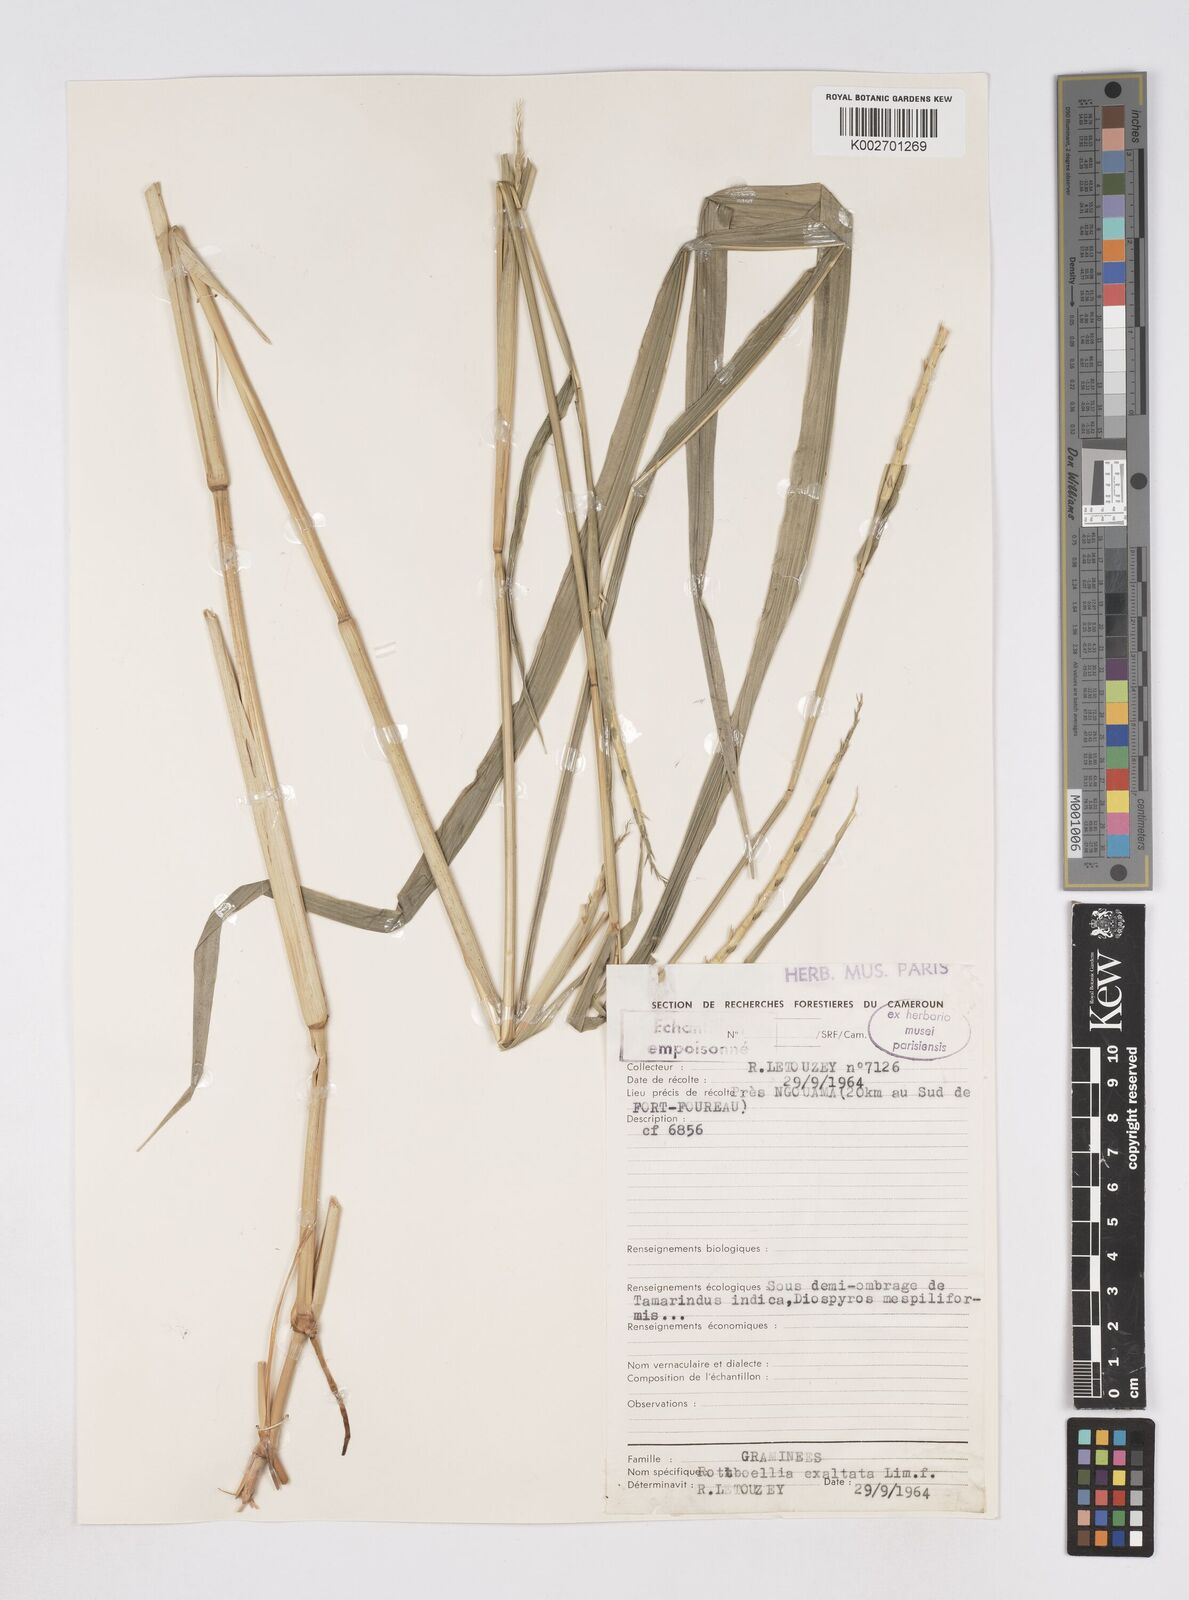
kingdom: Plantae
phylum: Tracheophyta
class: Liliopsida
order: Poales
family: Poaceae
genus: Rottboellia
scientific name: Rottboellia
